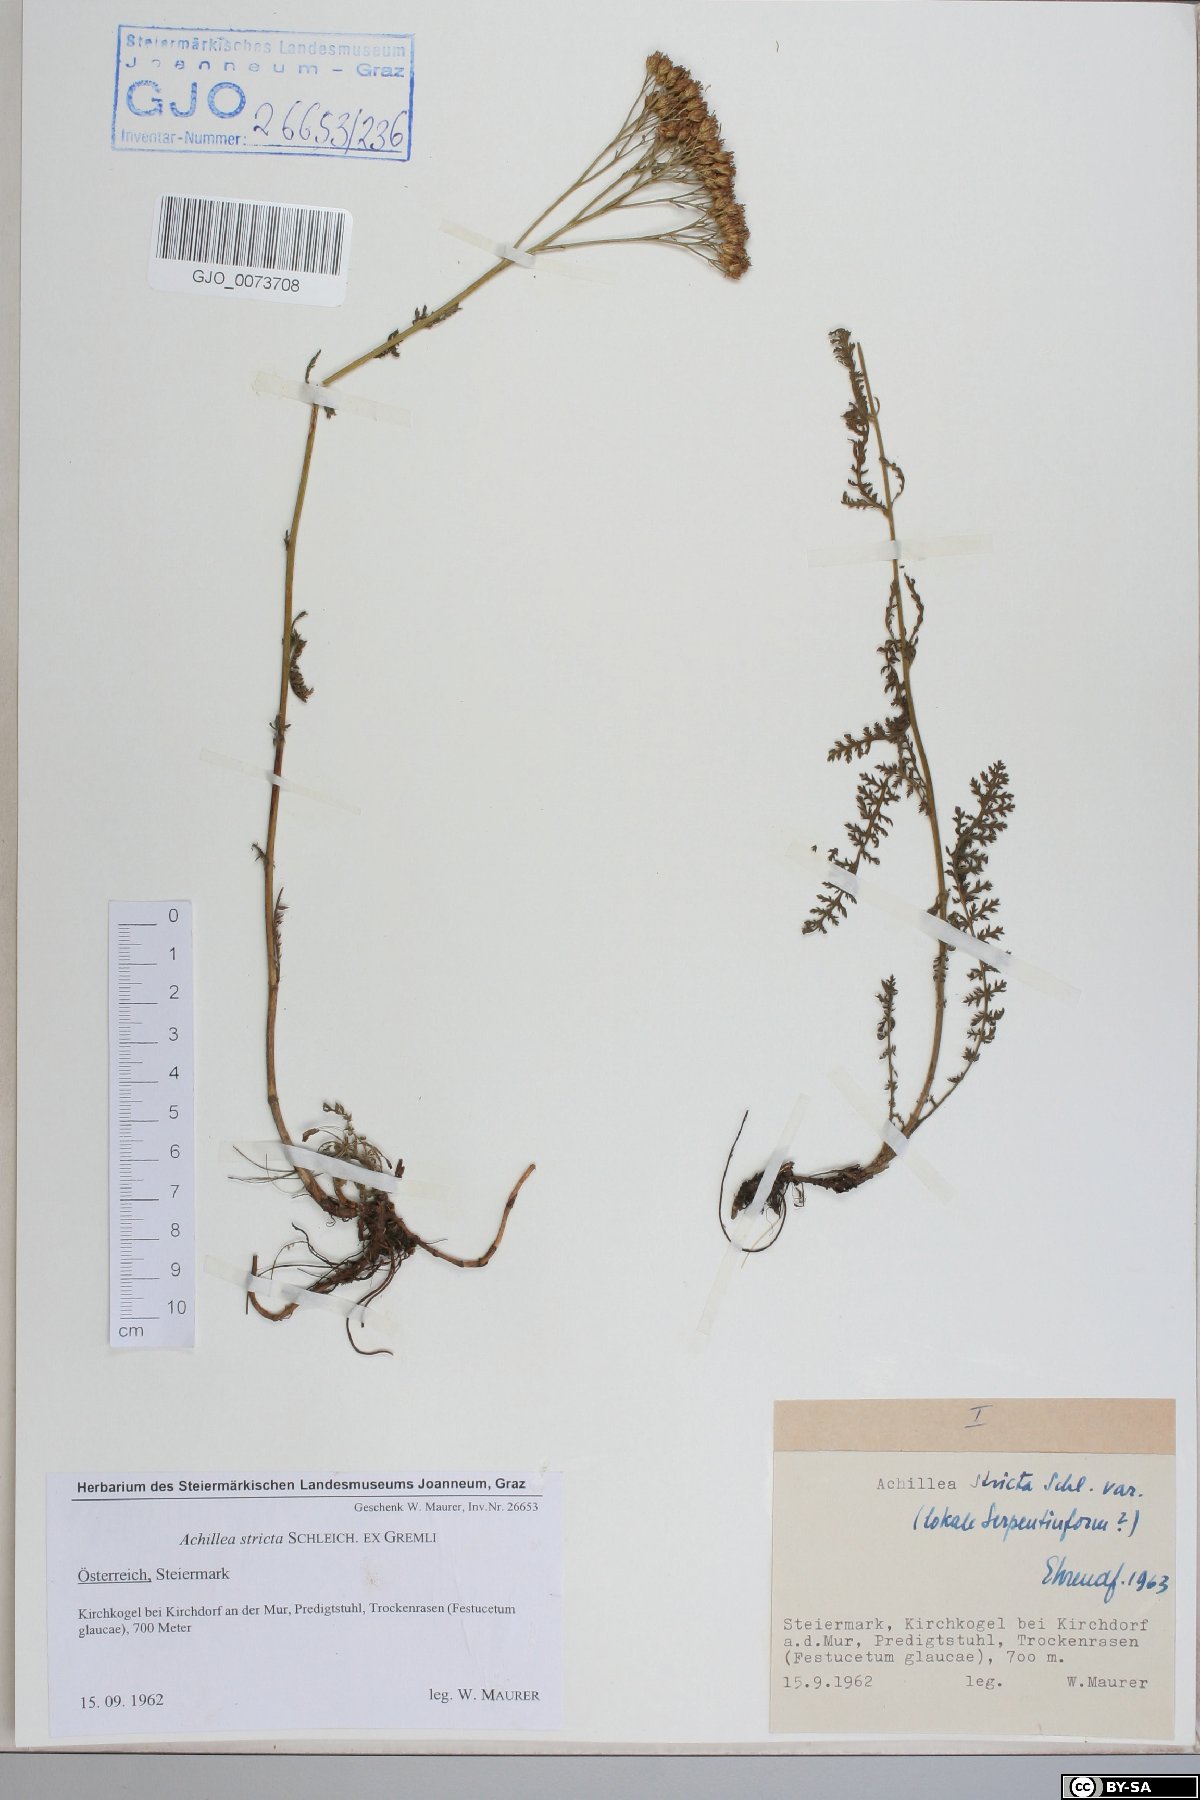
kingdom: Plantae
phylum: Tracheophyta
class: Magnoliopsida
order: Asterales
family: Asteraceae
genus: Achillea
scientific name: Achillea distans
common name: Tall yarrow
